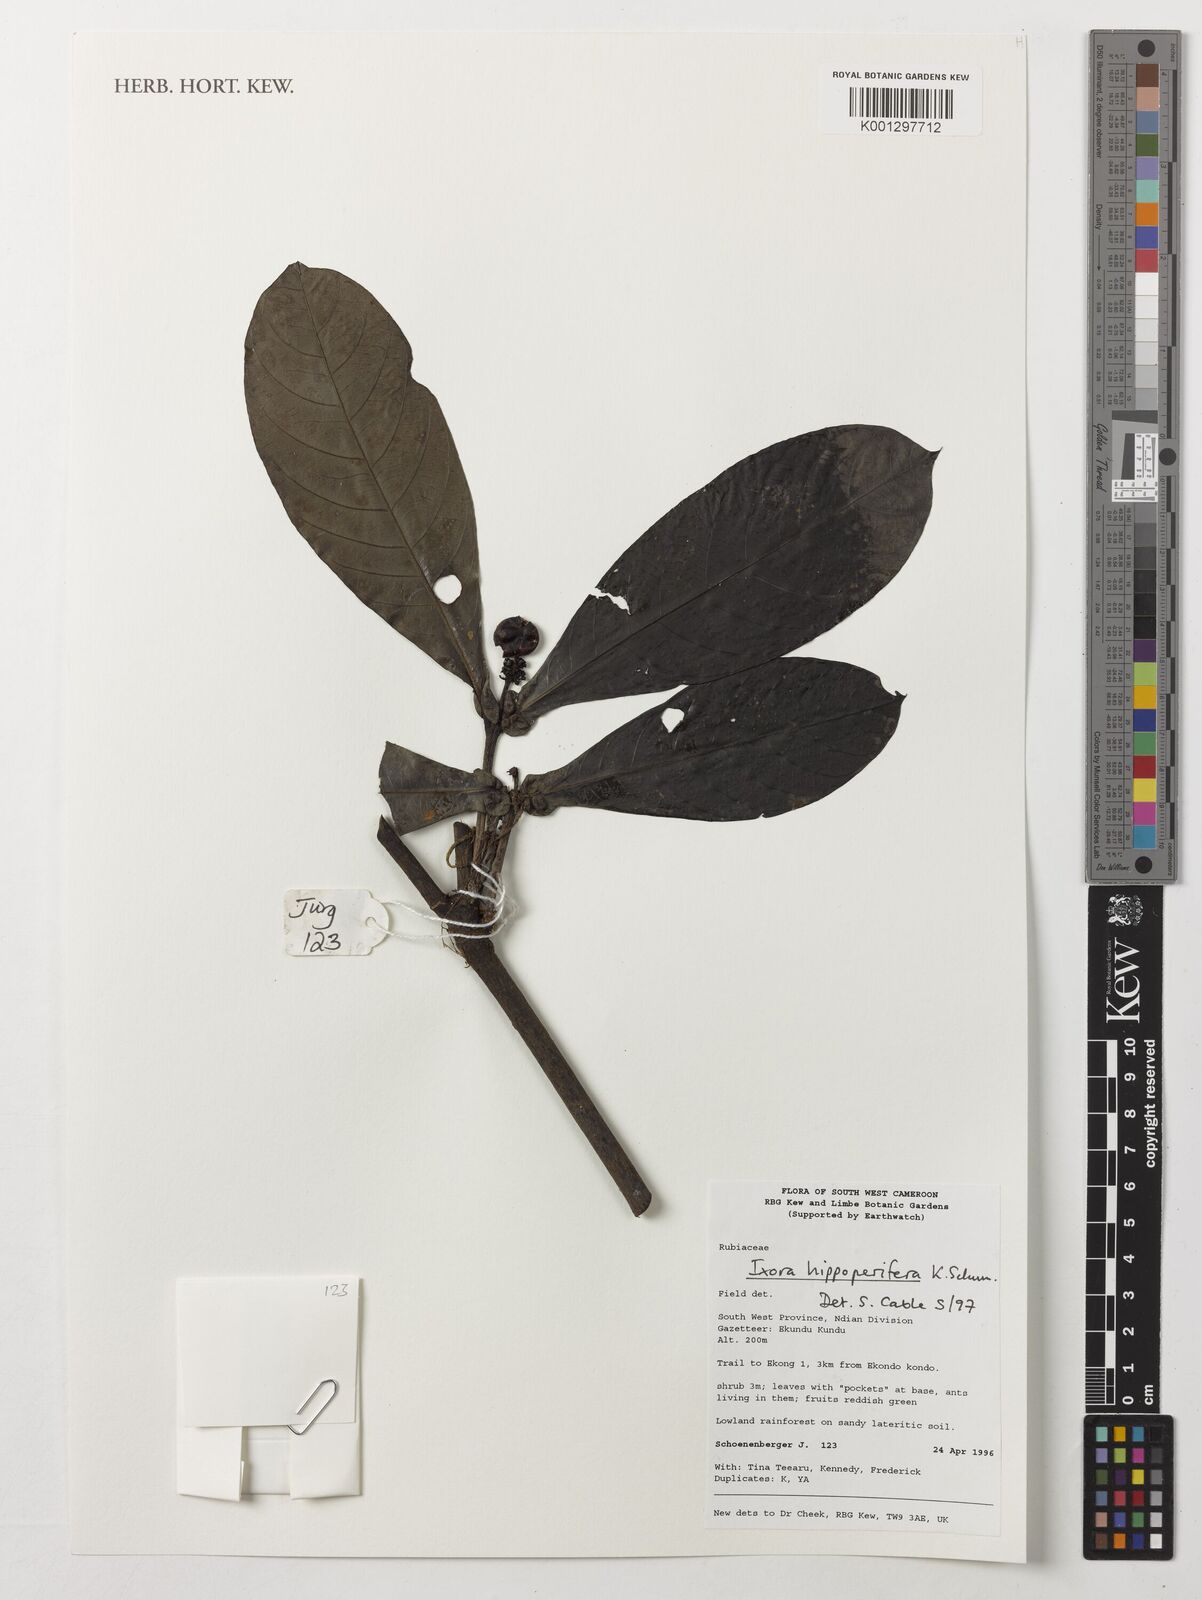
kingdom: Plantae
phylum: Tracheophyta
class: Magnoliopsida
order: Gentianales
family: Rubiaceae
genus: Ixora
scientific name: Ixora hippoperifera
